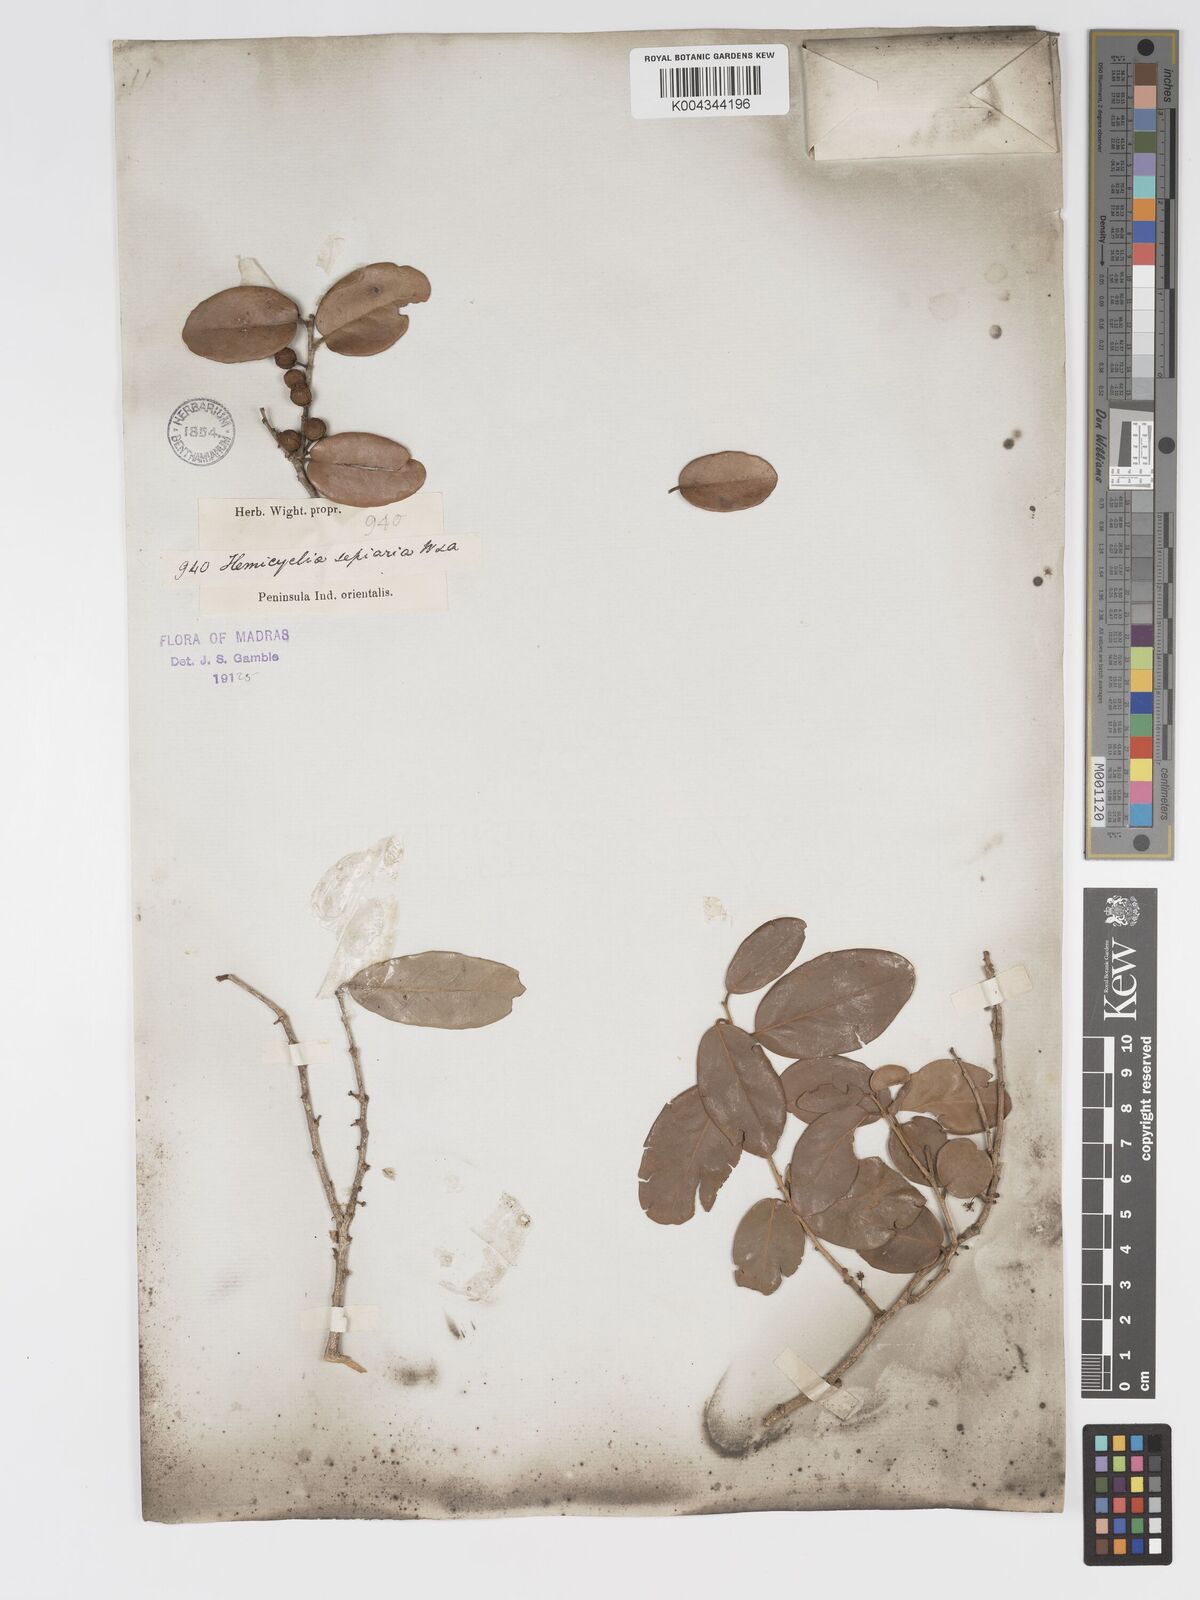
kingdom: Plantae
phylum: Tracheophyta
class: Magnoliopsida
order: Malpighiales
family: Putranjivaceae
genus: Drypetes
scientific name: Drypetes sepiaria
